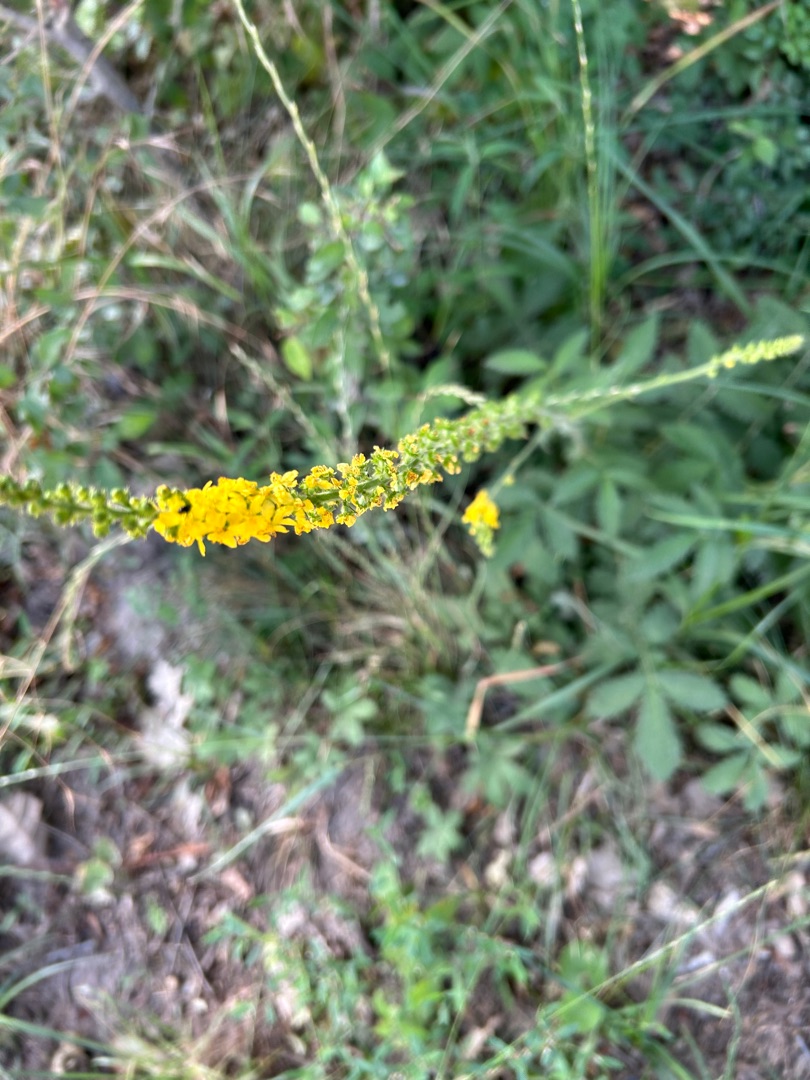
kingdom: Plantae
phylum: Tracheophyta
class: Magnoliopsida
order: Rosales
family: Rosaceae
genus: Agrimonia
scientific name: Agrimonia
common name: Agermåneslægten
